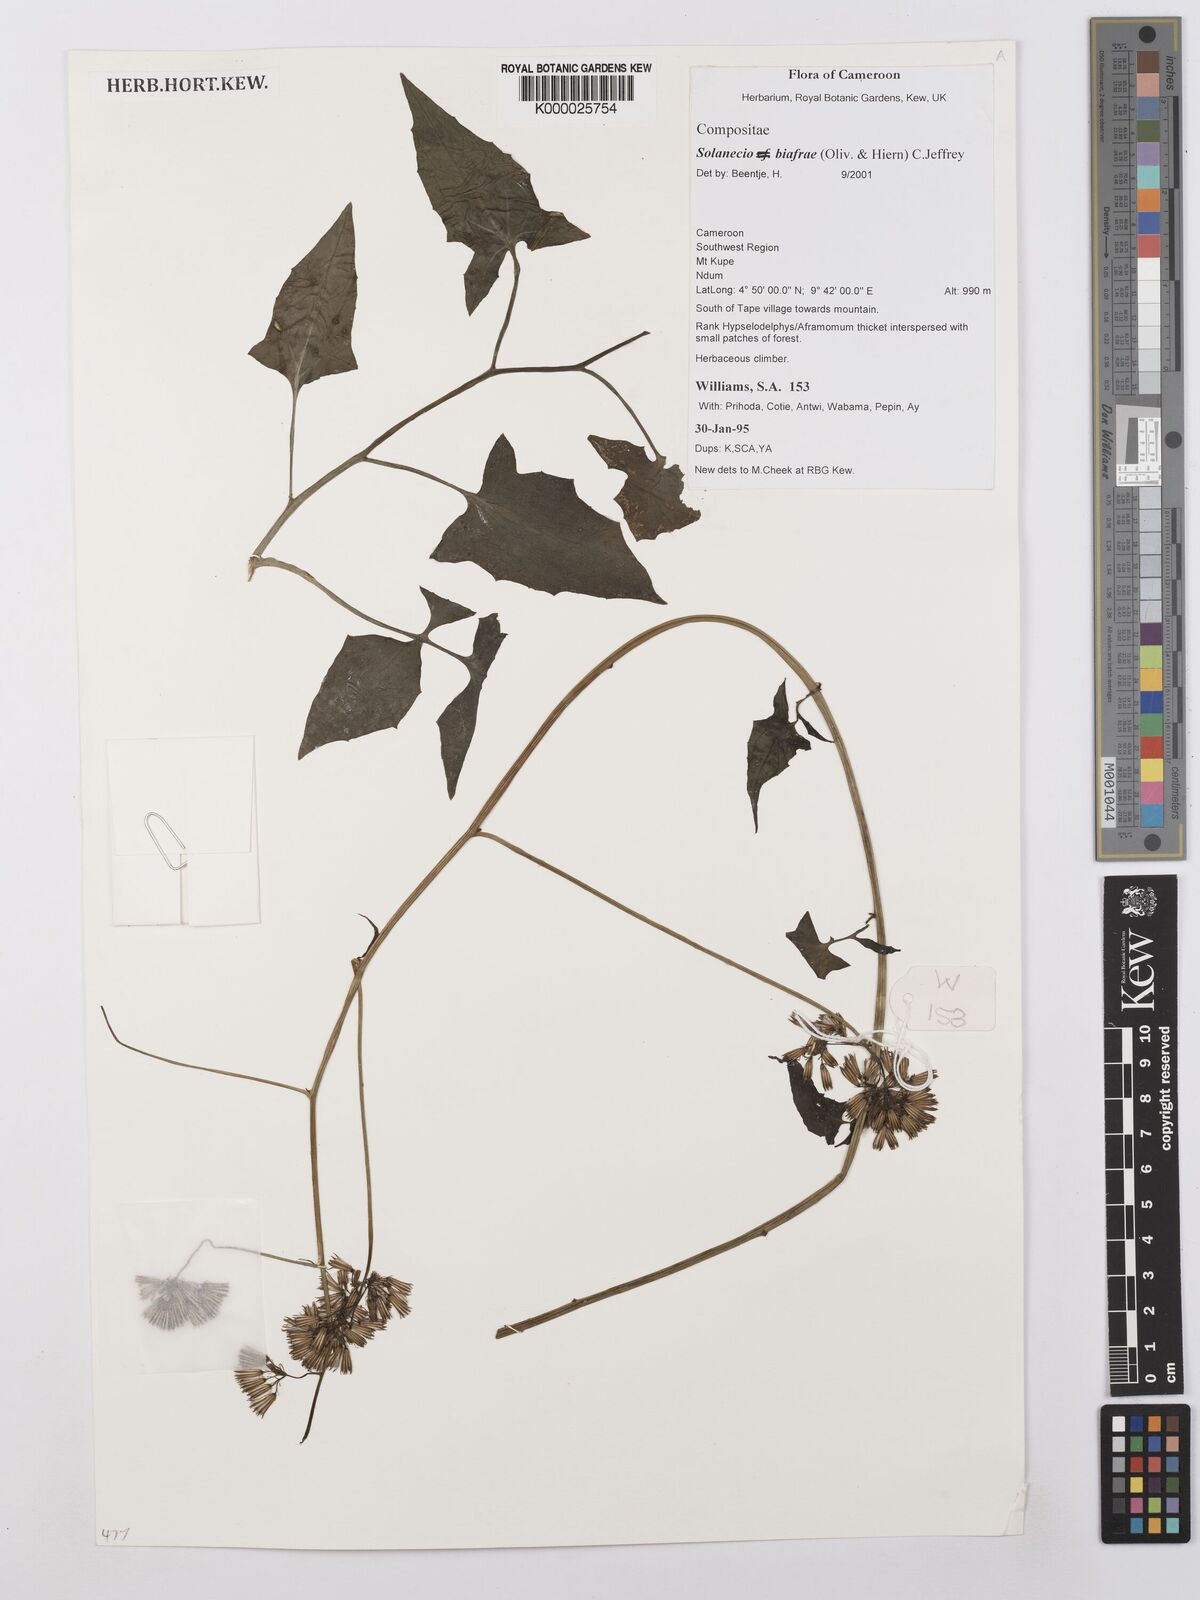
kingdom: Plantae
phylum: Tracheophyta
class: Magnoliopsida
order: Asterales
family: Asteraceae
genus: Solanecio
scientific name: Solanecio biafrae
